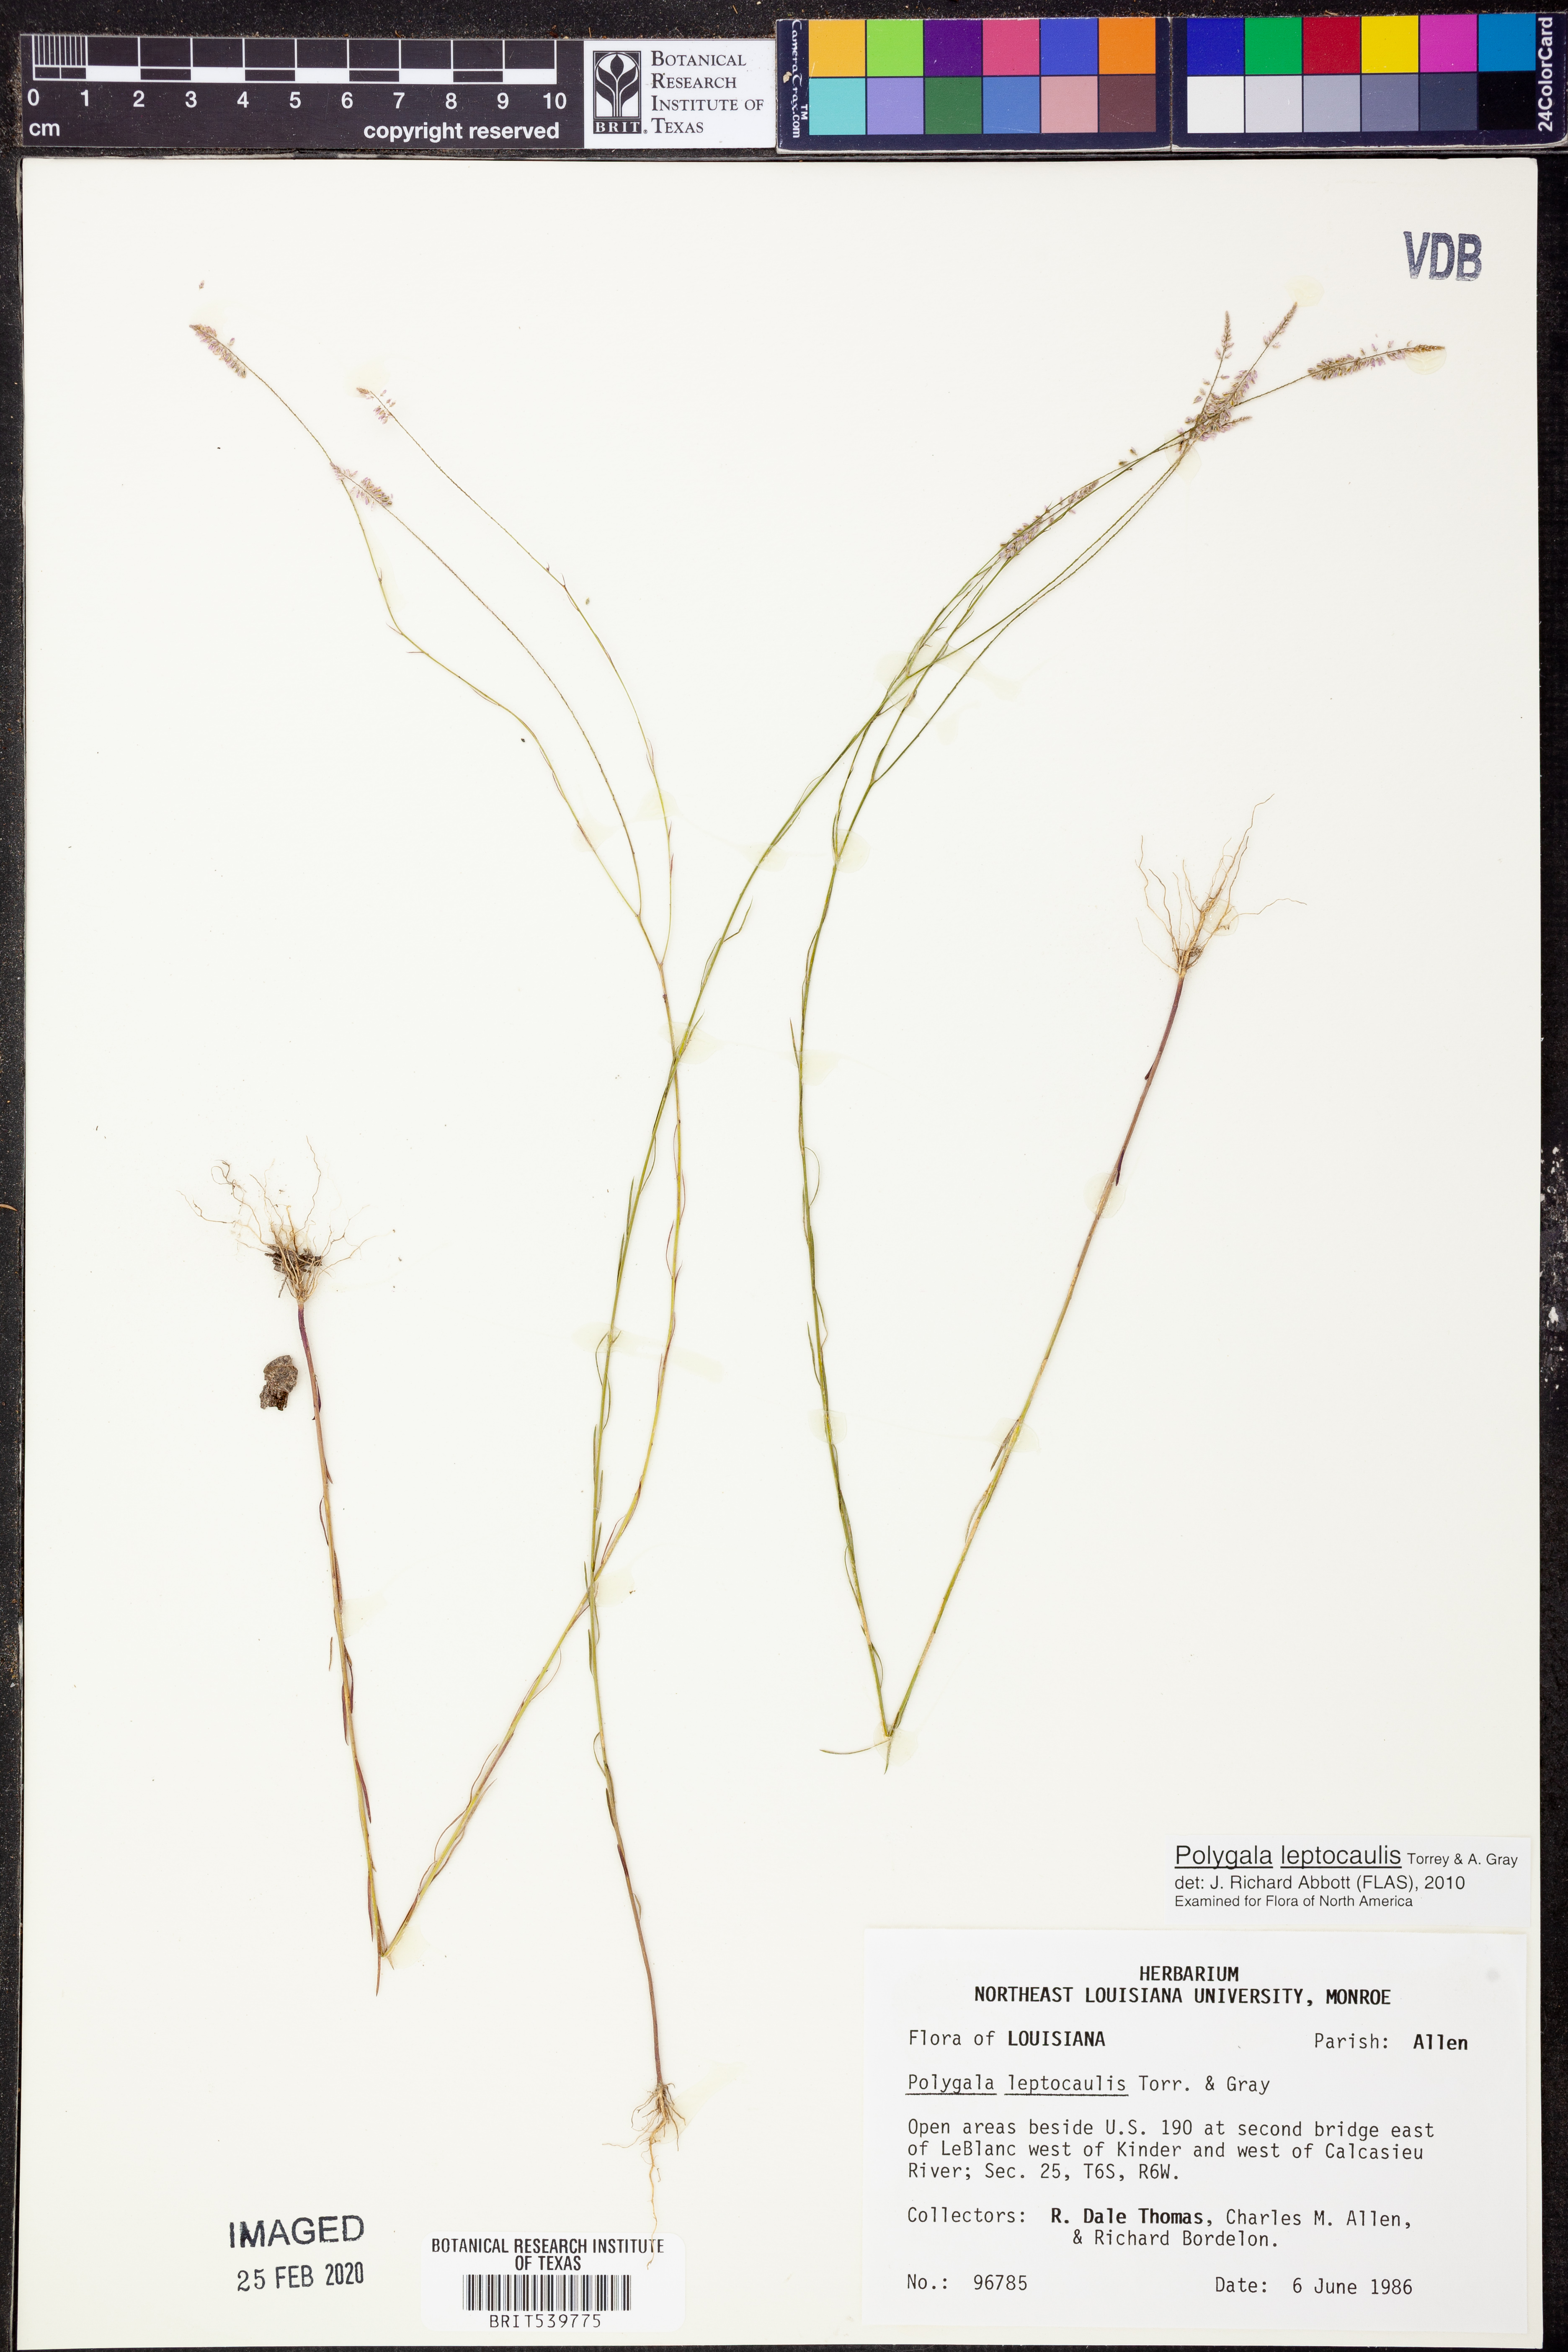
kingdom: Plantae
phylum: Tracheophyta
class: Magnoliopsida
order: Fabales
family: Polygalaceae
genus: Polygala
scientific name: Polygala tenella
